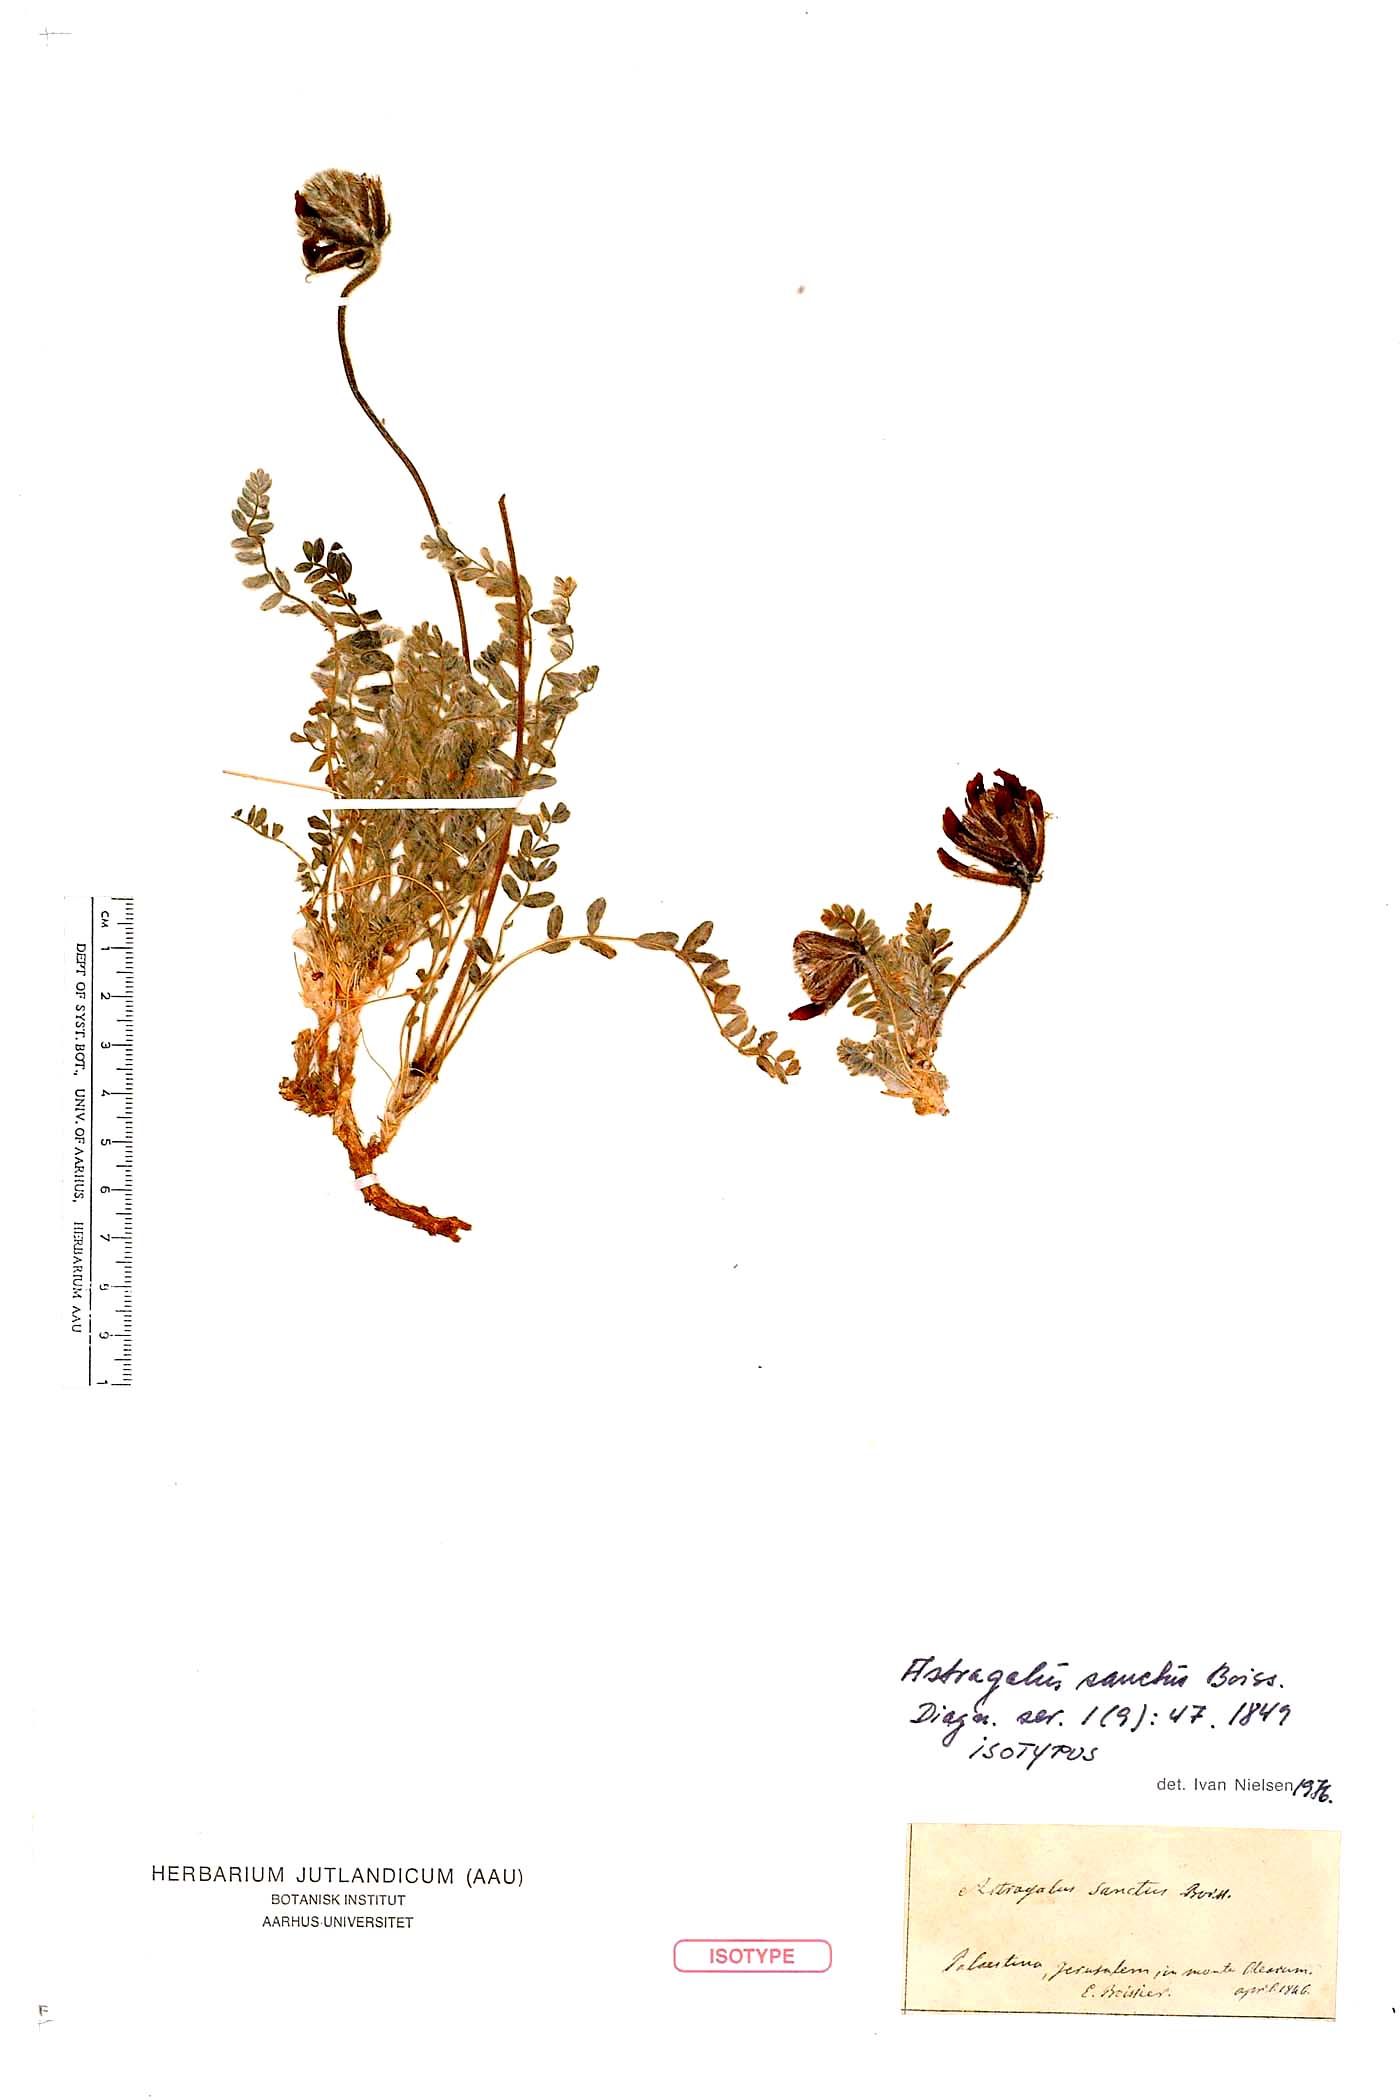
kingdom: Plantae
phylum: Tracheophyta
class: Magnoliopsida
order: Fabales
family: Fabaceae
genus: Astragalus
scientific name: Astragalus sanctus
